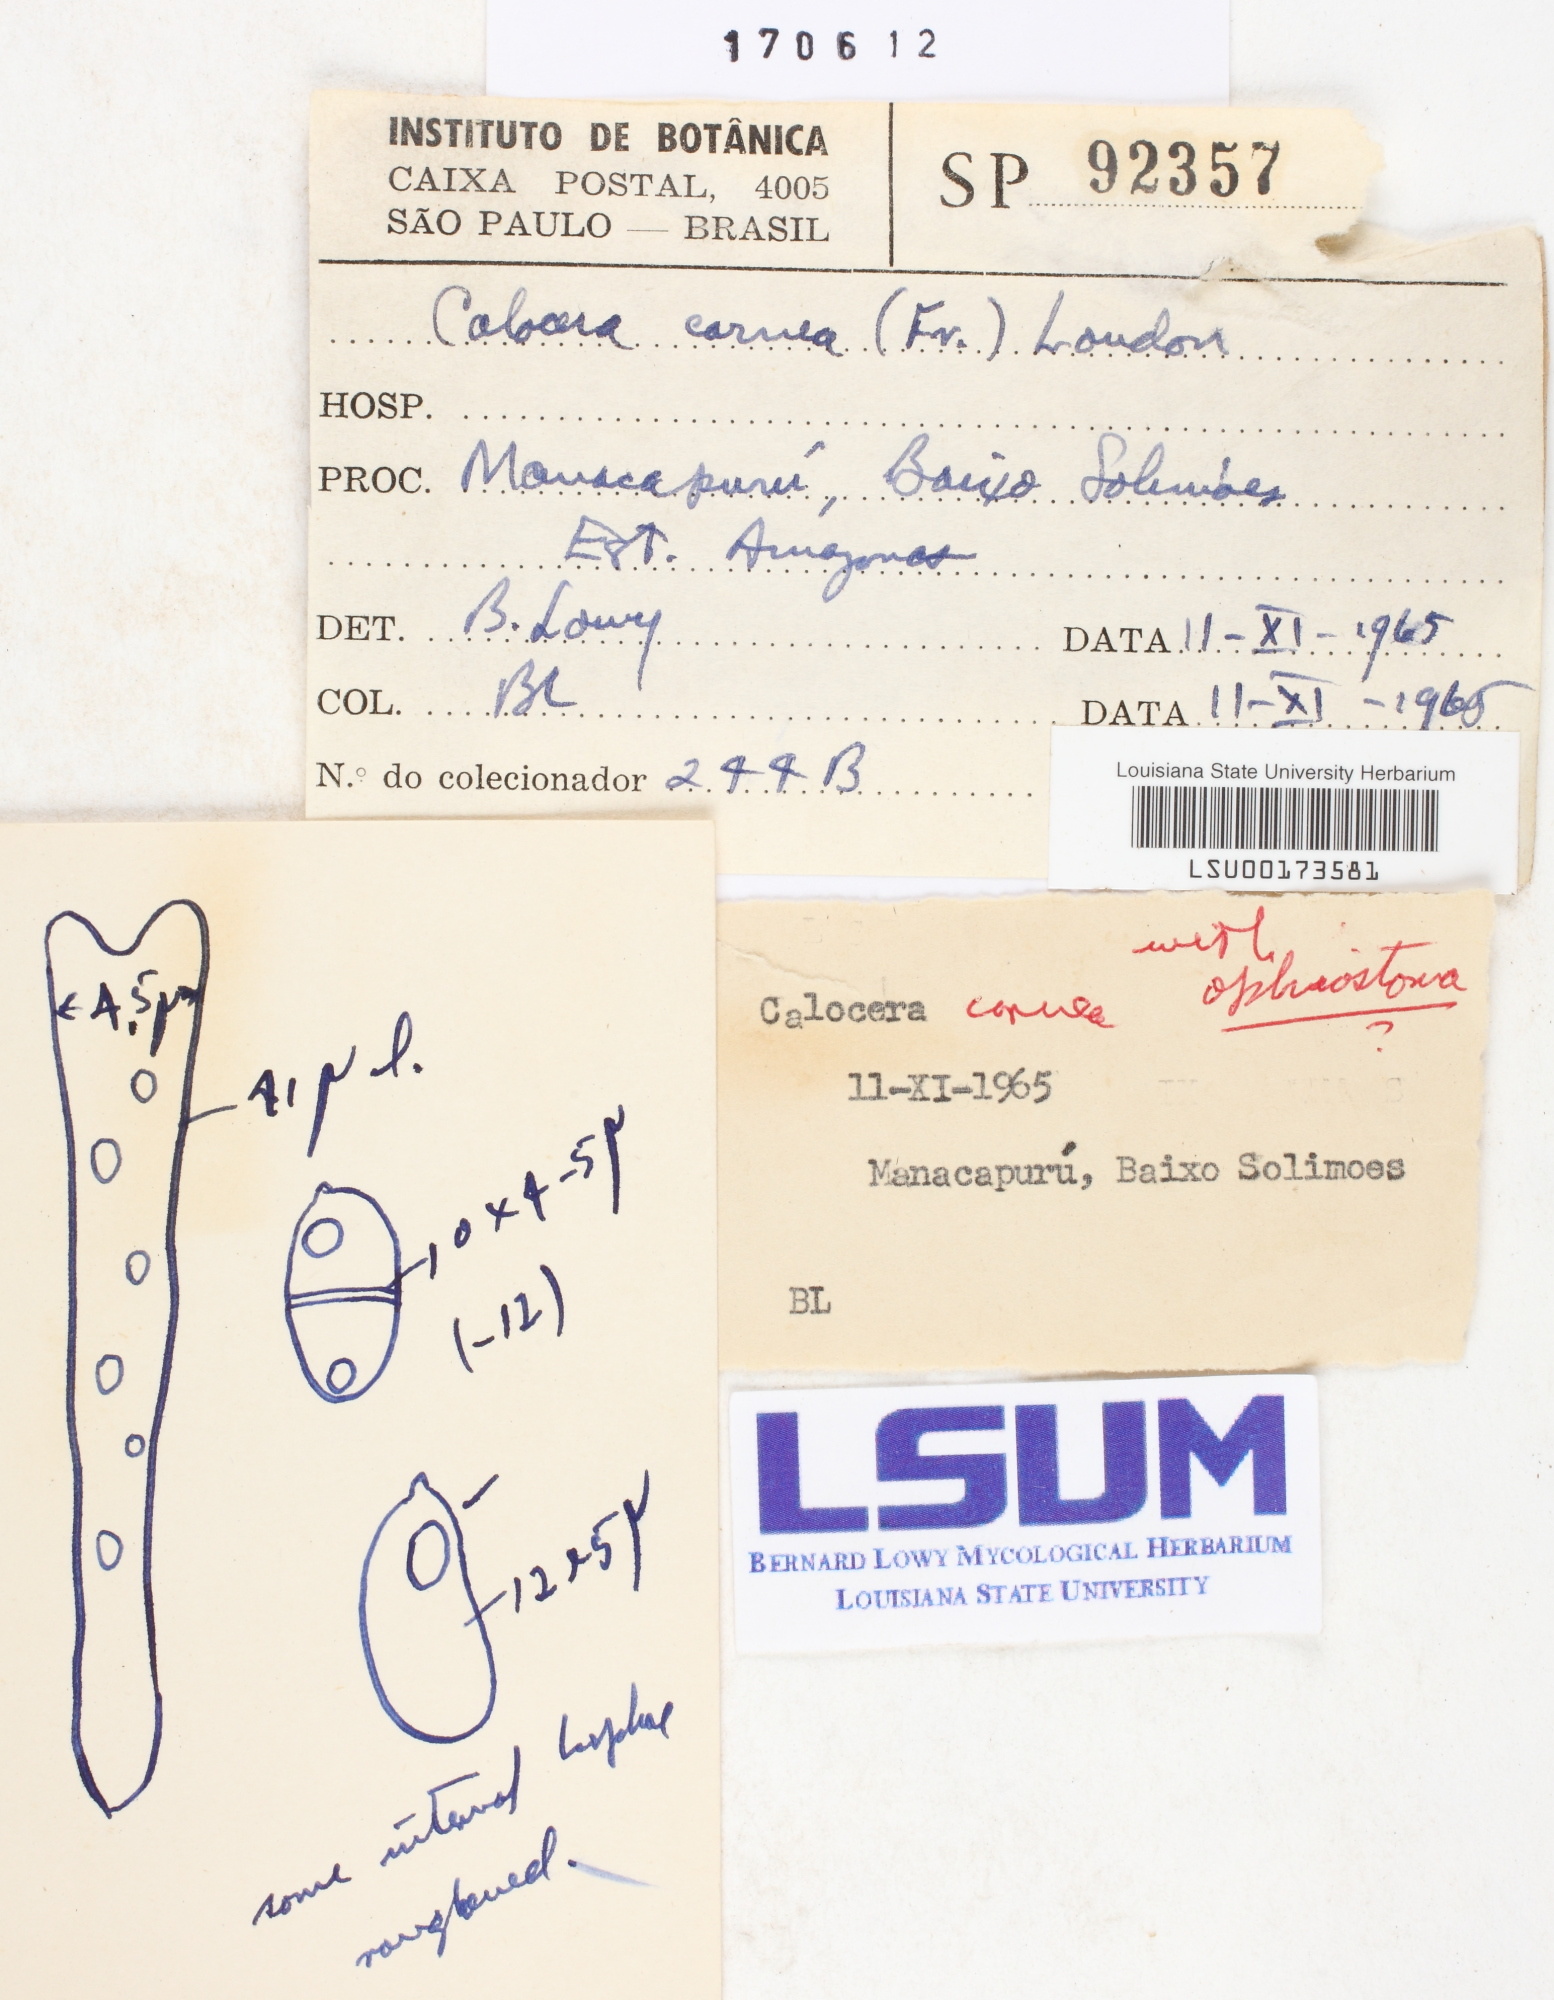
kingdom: Fungi
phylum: Basidiomycota
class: Dacrymycetes
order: Dacrymycetales
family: Dacrymycetaceae
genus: Calocera
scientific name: Calocera cornea
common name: Small stagshorn
